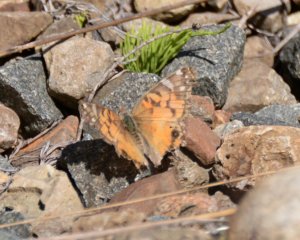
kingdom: Animalia
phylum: Arthropoda
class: Insecta
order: Lepidoptera
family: Nymphalidae
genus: Vanessa
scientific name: Vanessa virginiensis
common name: American Lady
